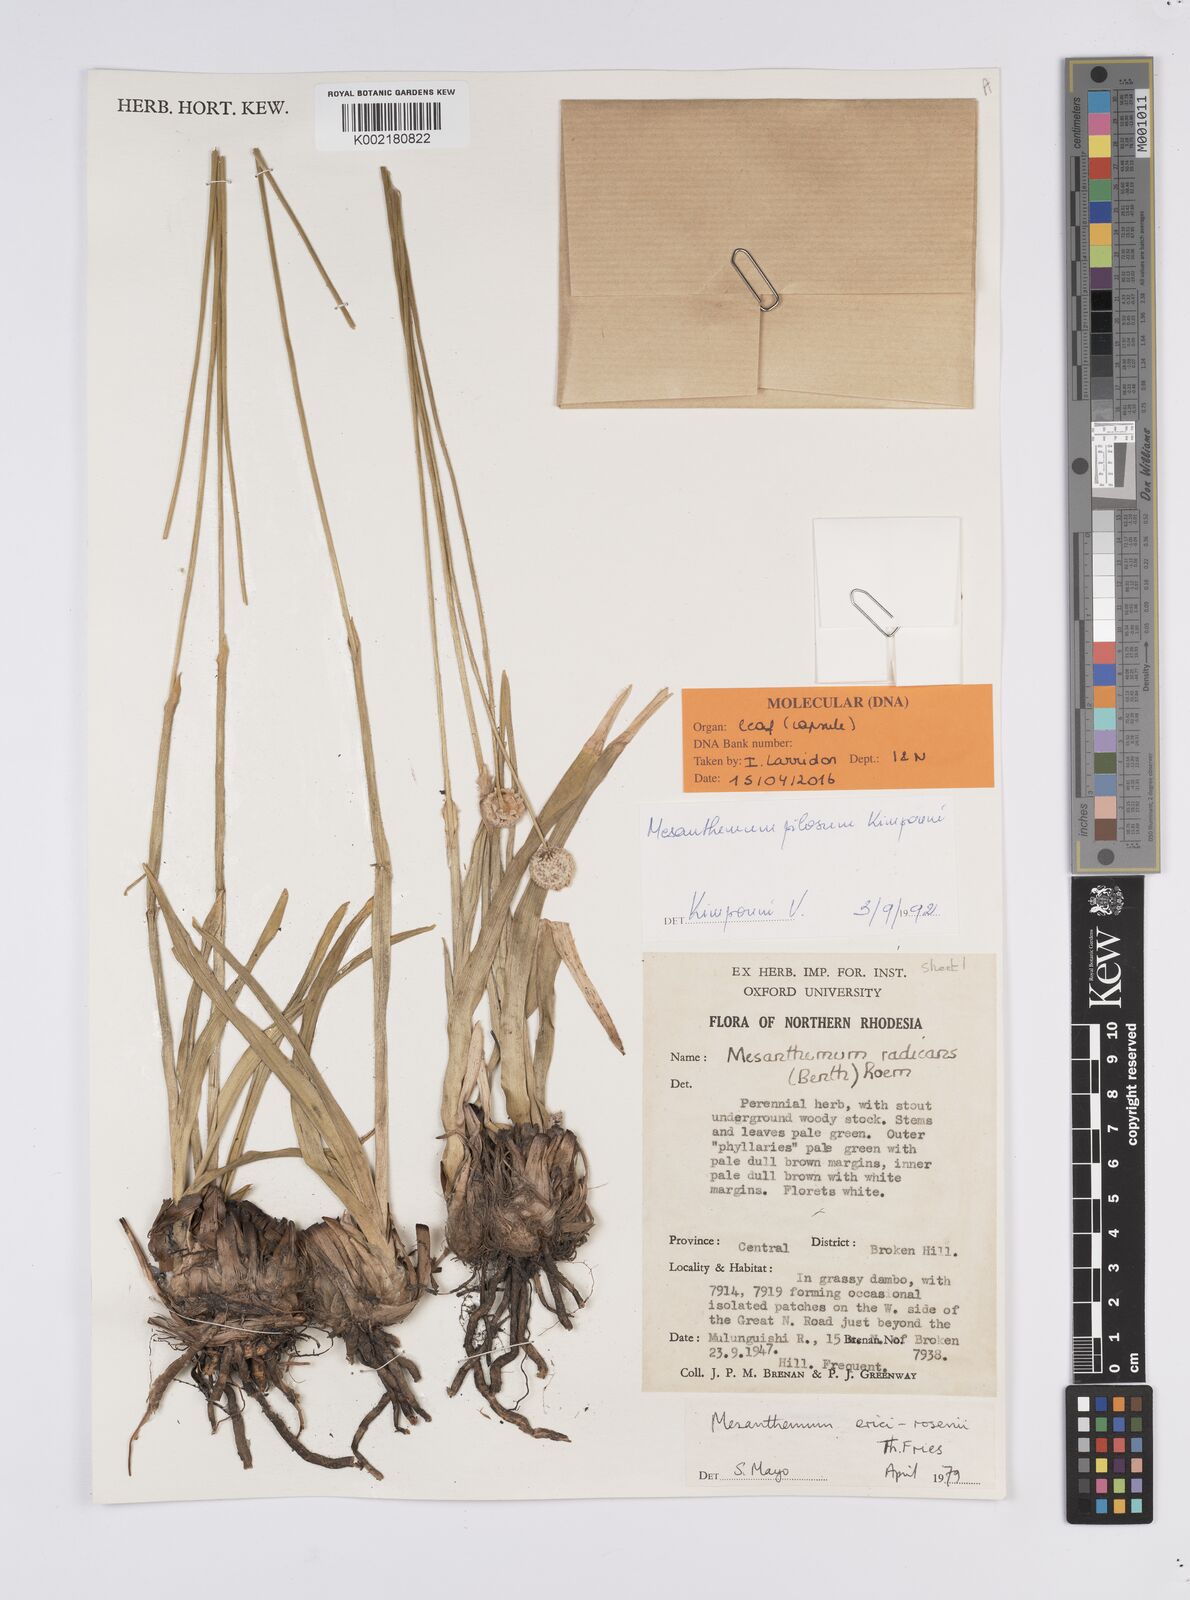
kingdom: Plantae
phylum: Tracheophyta
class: Liliopsida
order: Poales
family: Eriocaulaceae
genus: Mesanthemum
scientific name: Mesanthemum pilosum
